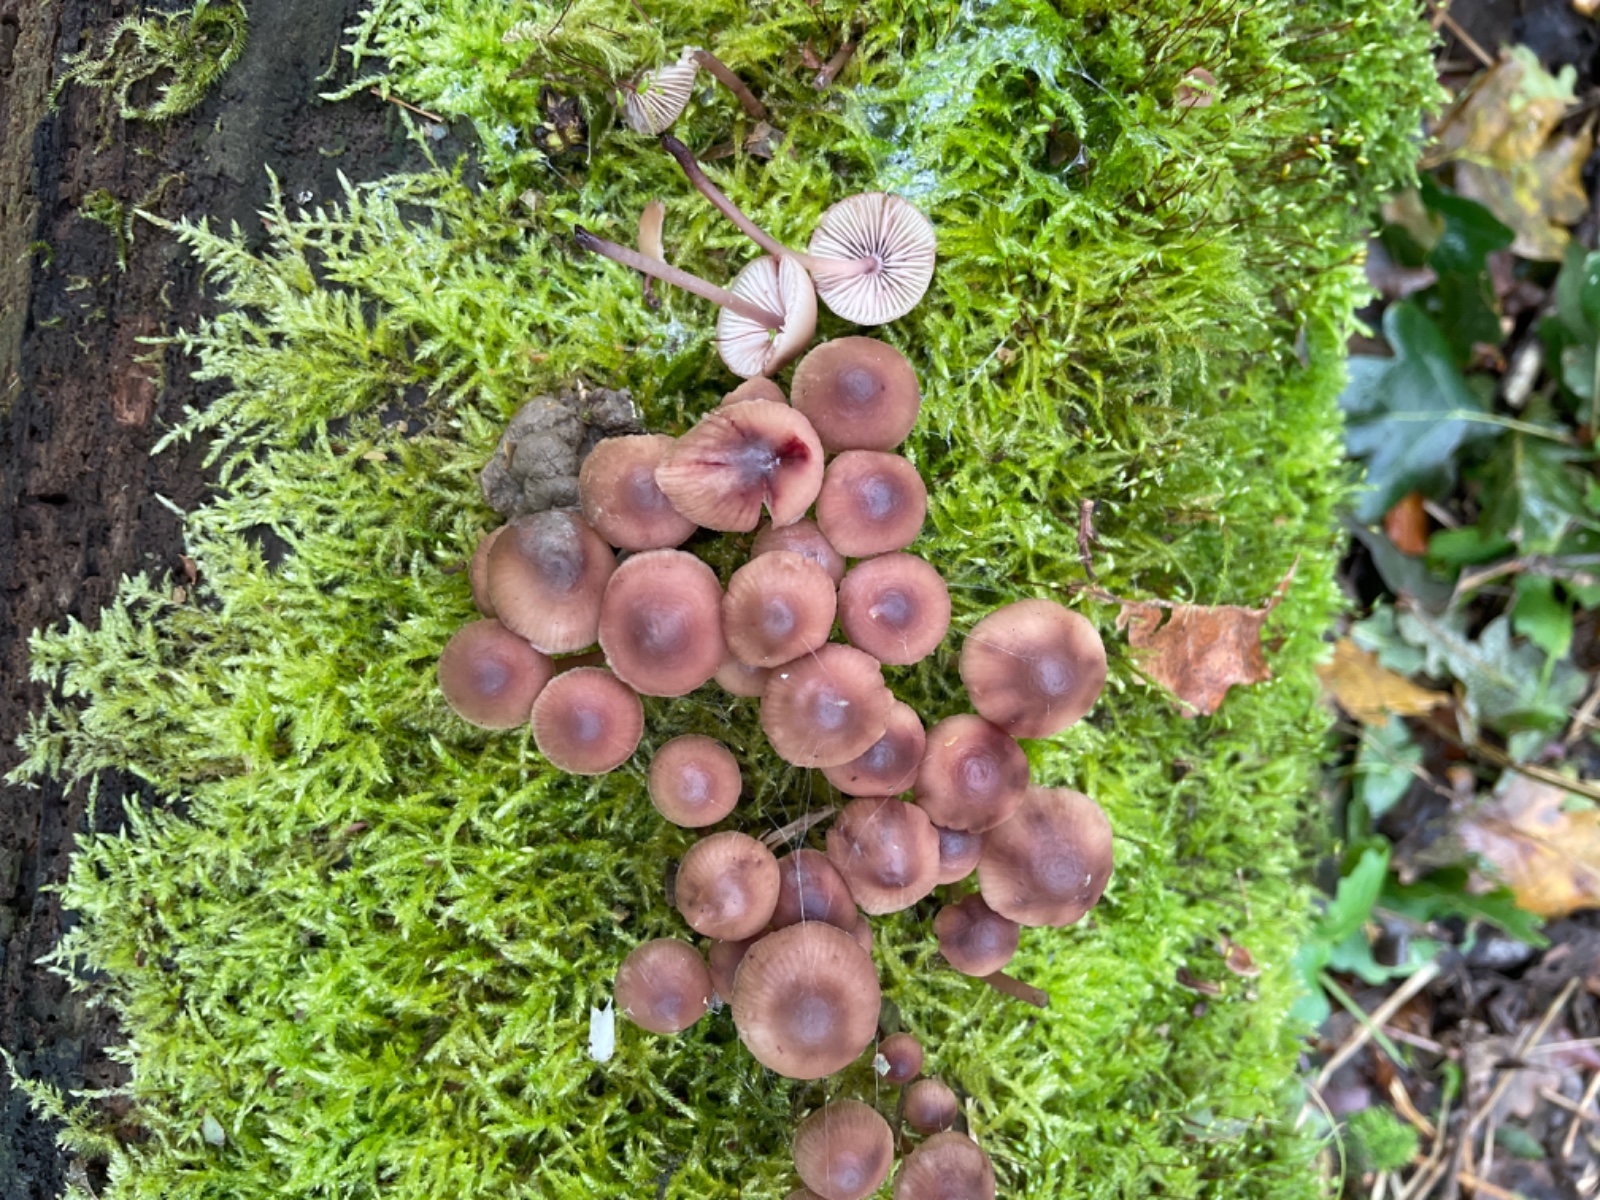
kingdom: Fungi
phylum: Basidiomycota
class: Agaricomycetes
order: Agaricales
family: Mycenaceae
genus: Mycena
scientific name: Mycena haematopus
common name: blødende huesvamp
